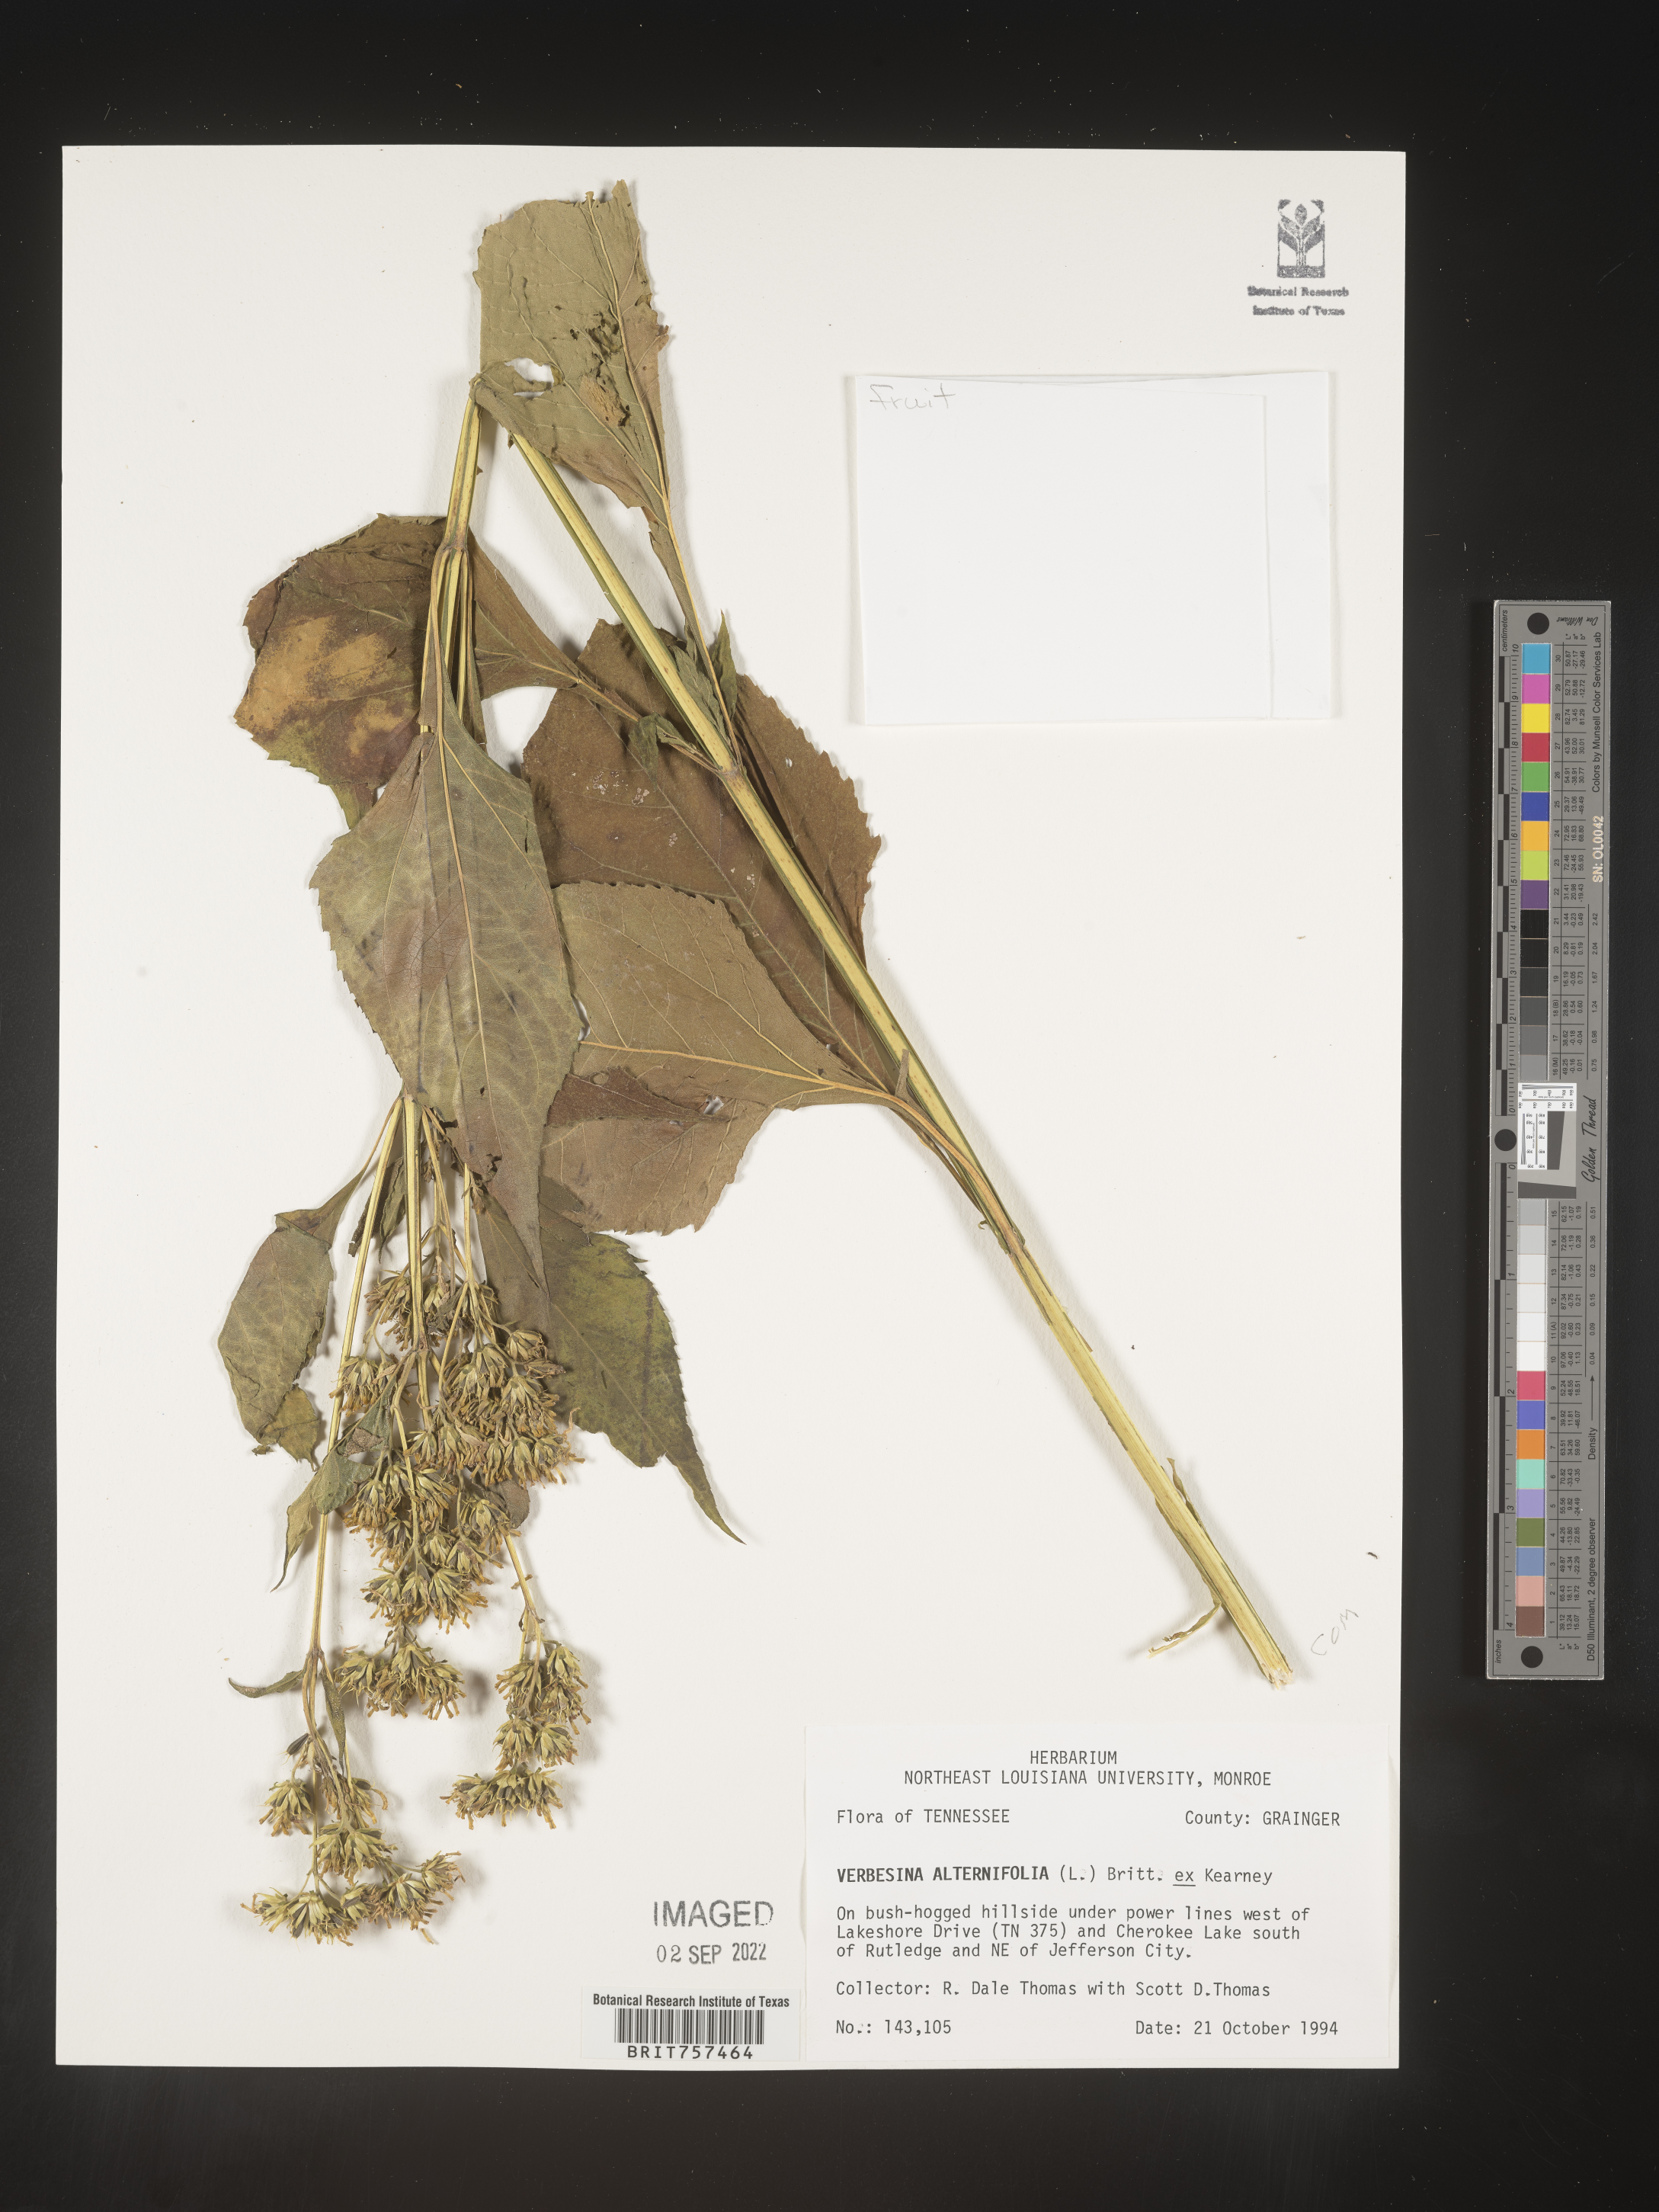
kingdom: Plantae
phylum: Tracheophyta
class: Magnoliopsida
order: Asterales
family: Asteraceae
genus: Verbesina
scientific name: Verbesina alternifolia
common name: Wingstem
